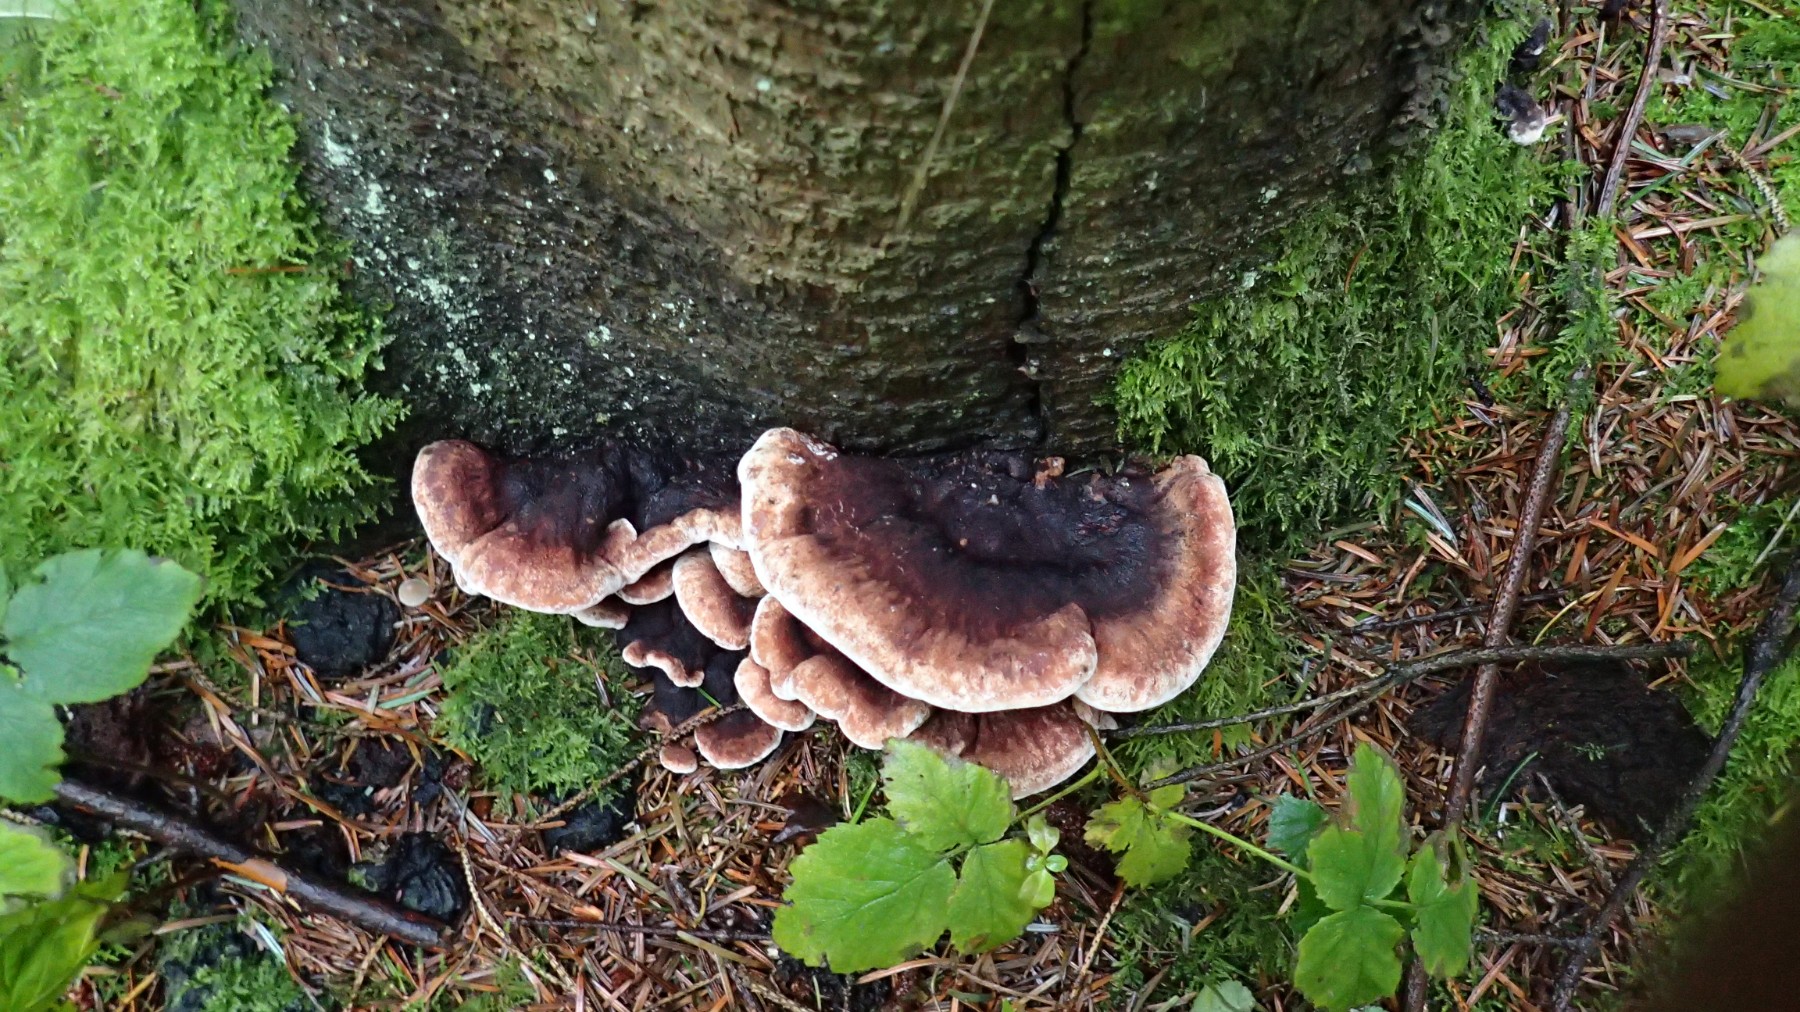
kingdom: Fungi
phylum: Basidiomycota
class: Agaricomycetes
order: Polyporales
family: Ischnodermataceae
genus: Ischnoderma
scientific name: Ischnoderma benzoinum
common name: gran-tjæreporesvamp
